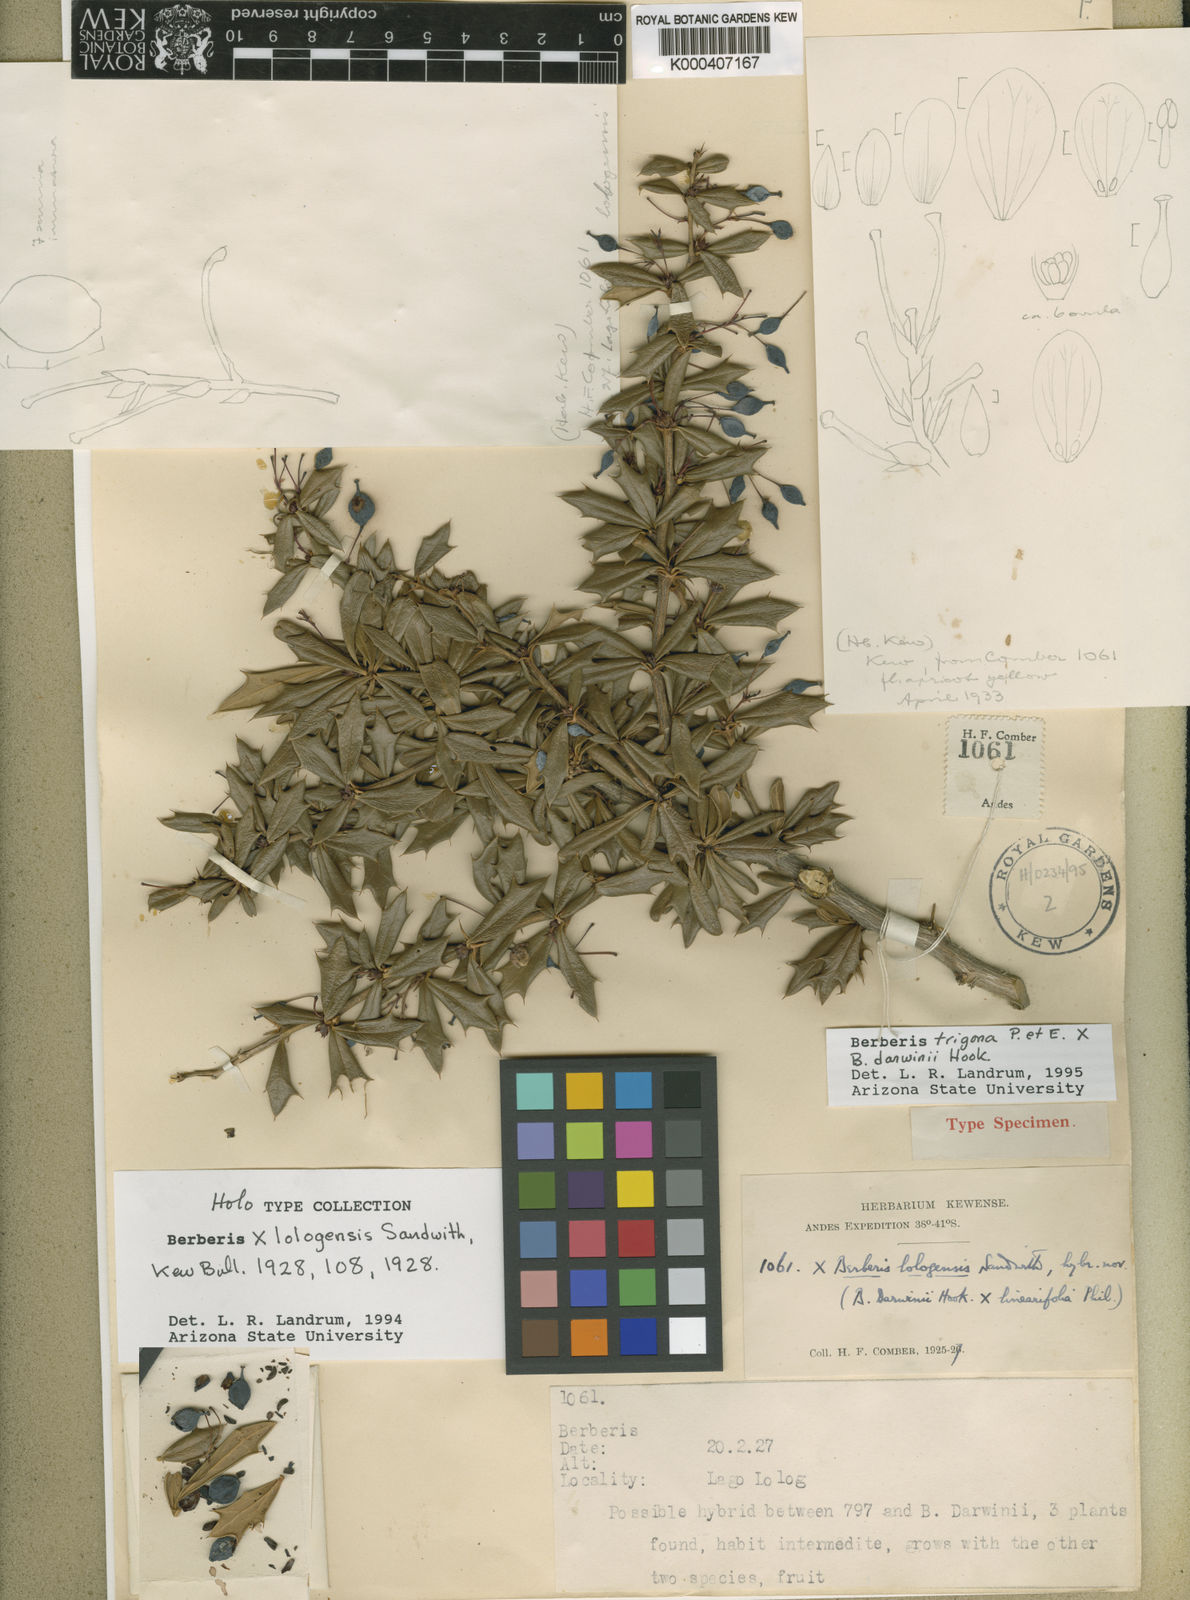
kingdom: Plantae
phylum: Tracheophyta
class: Magnoliopsida
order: Ranunculales
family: Berberidaceae
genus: Berberis
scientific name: Berberis bidentata
